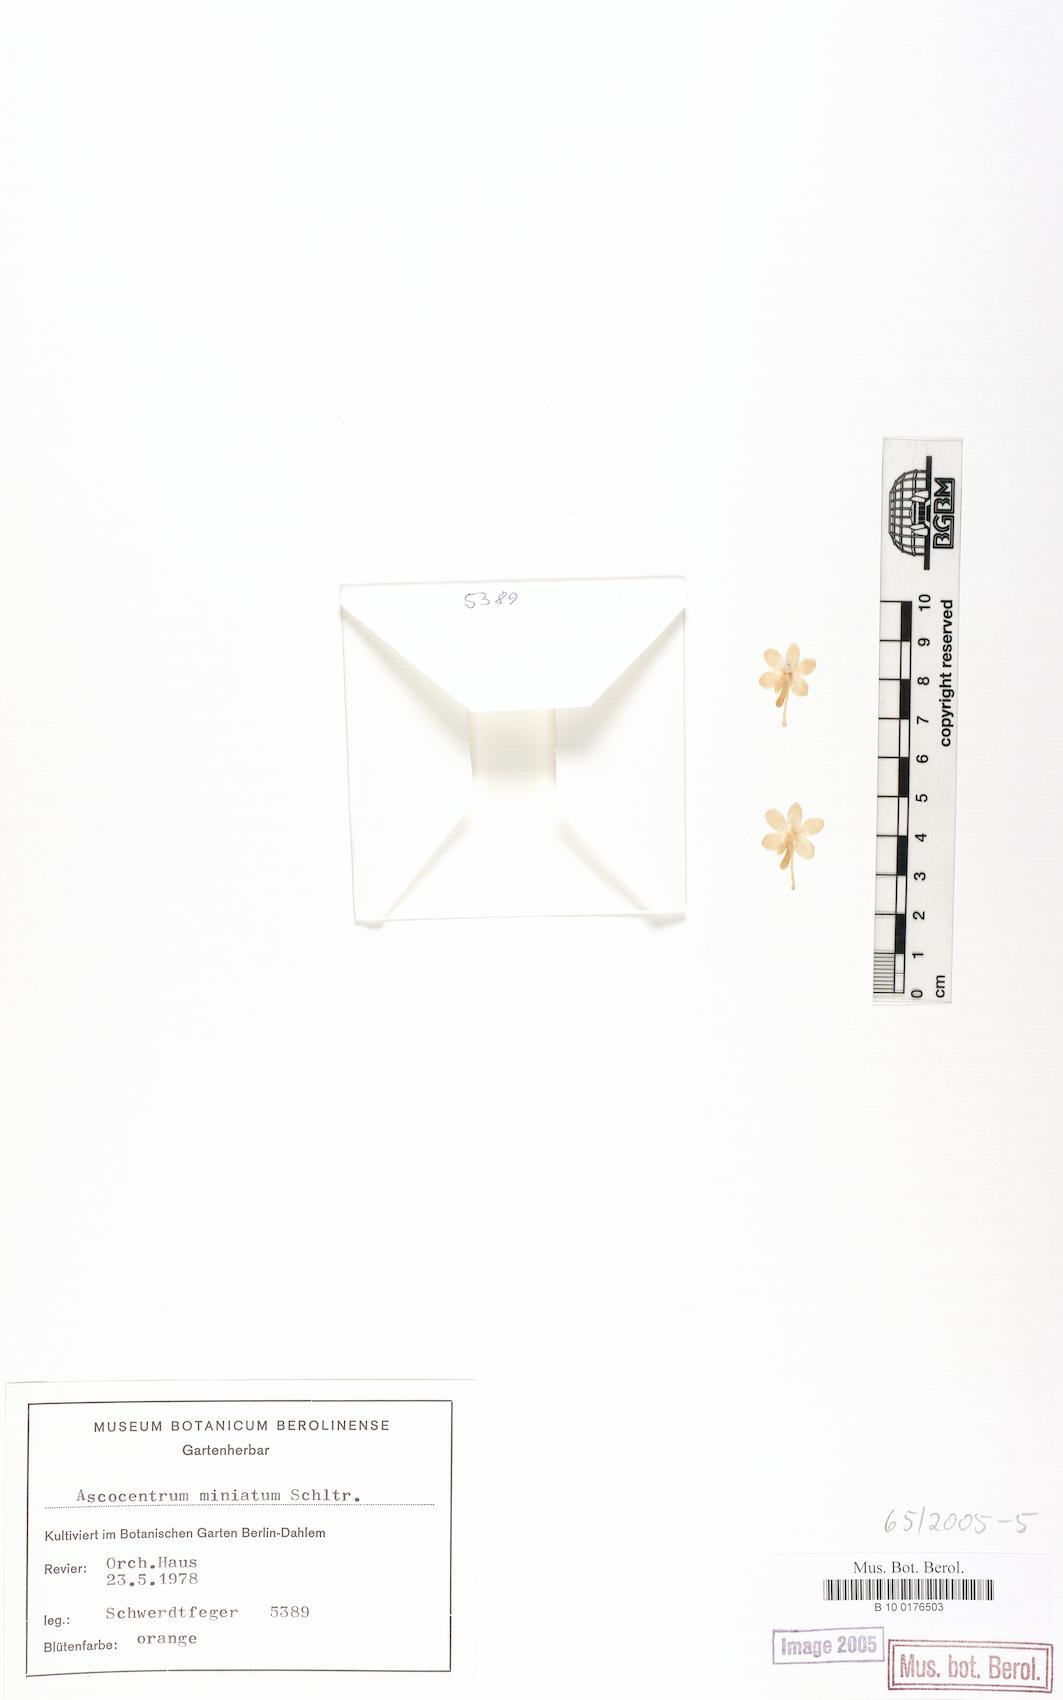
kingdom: Plantae
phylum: Tracheophyta
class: Liliopsida
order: Asparagales
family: Orchidaceae
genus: Vanda
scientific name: Vanda miniata
